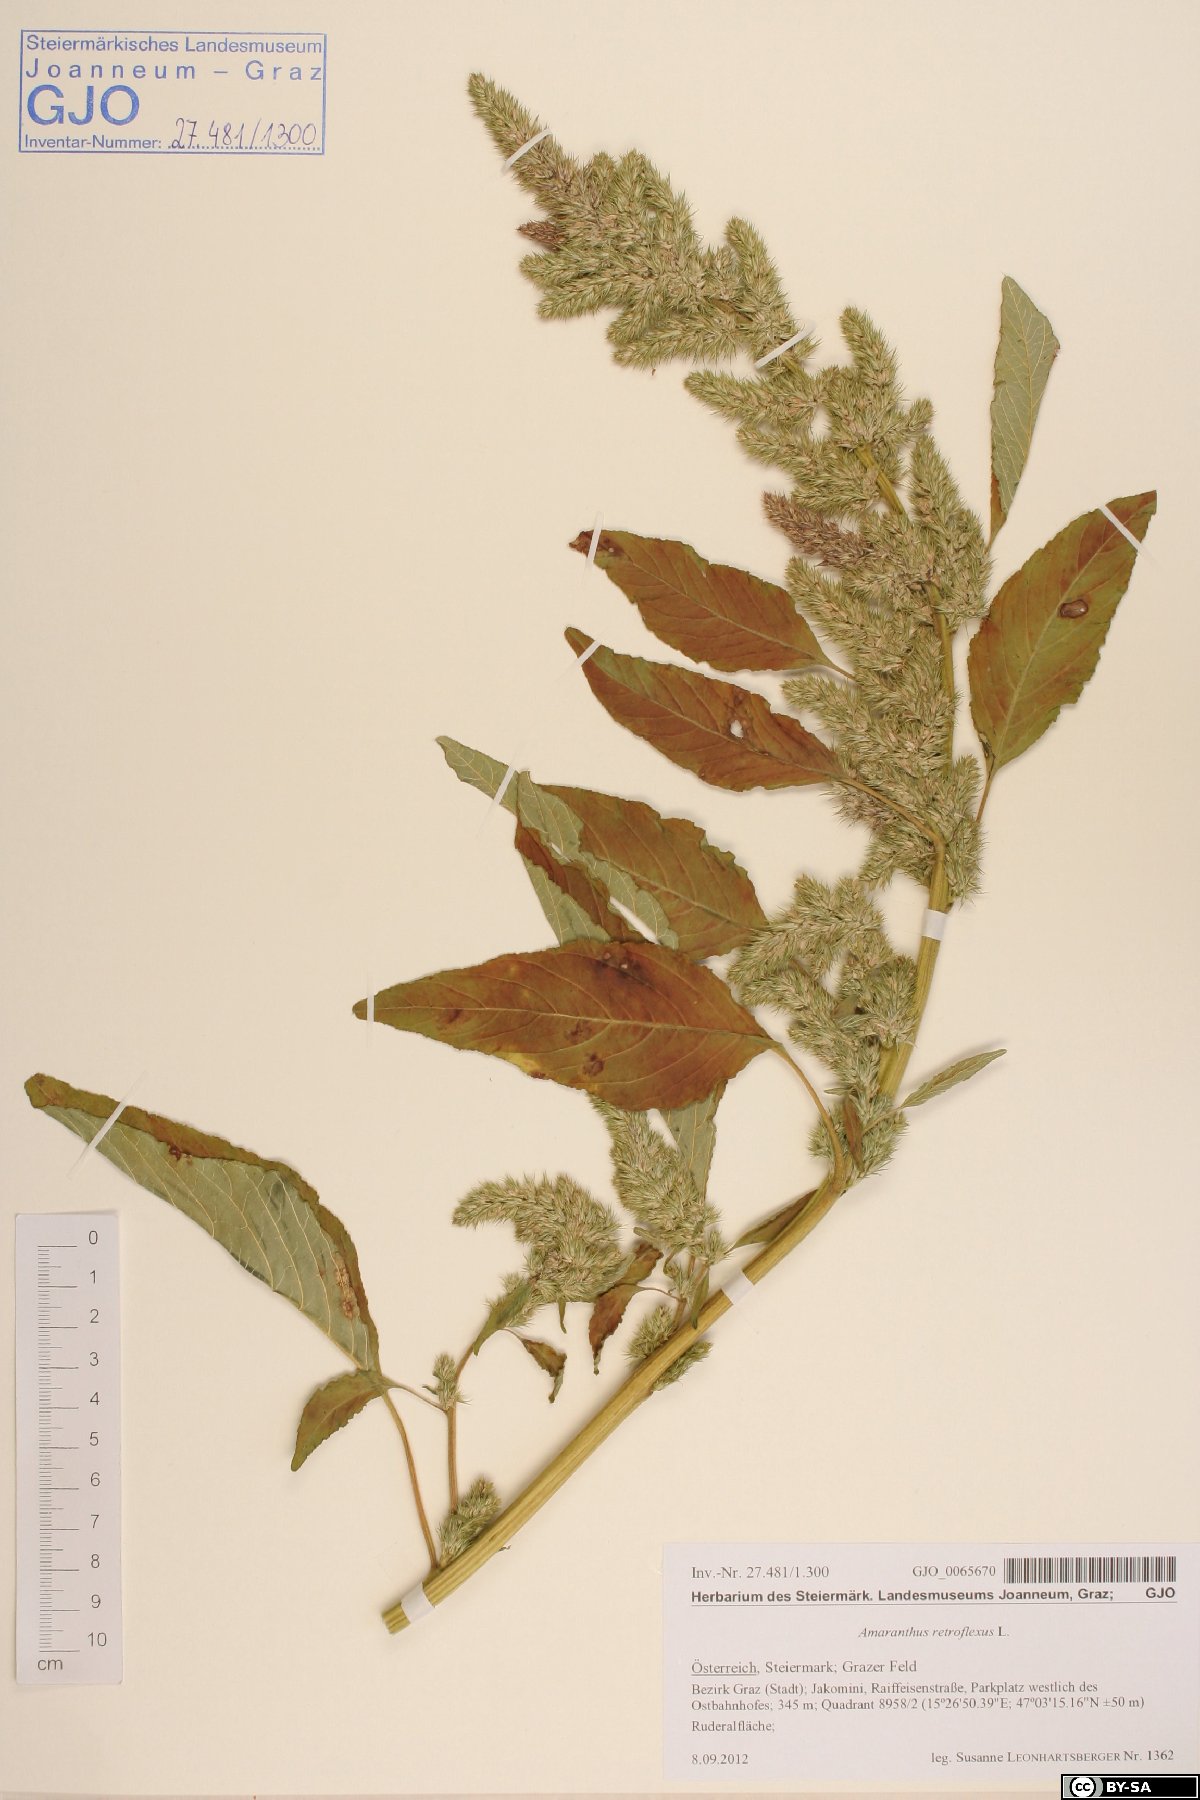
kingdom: Plantae
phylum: Tracheophyta
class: Magnoliopsida
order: Caryophyllales
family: Amaranthaceae
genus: Amaranthus
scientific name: Amaranthus retroflexus
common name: Redroot amaranth
